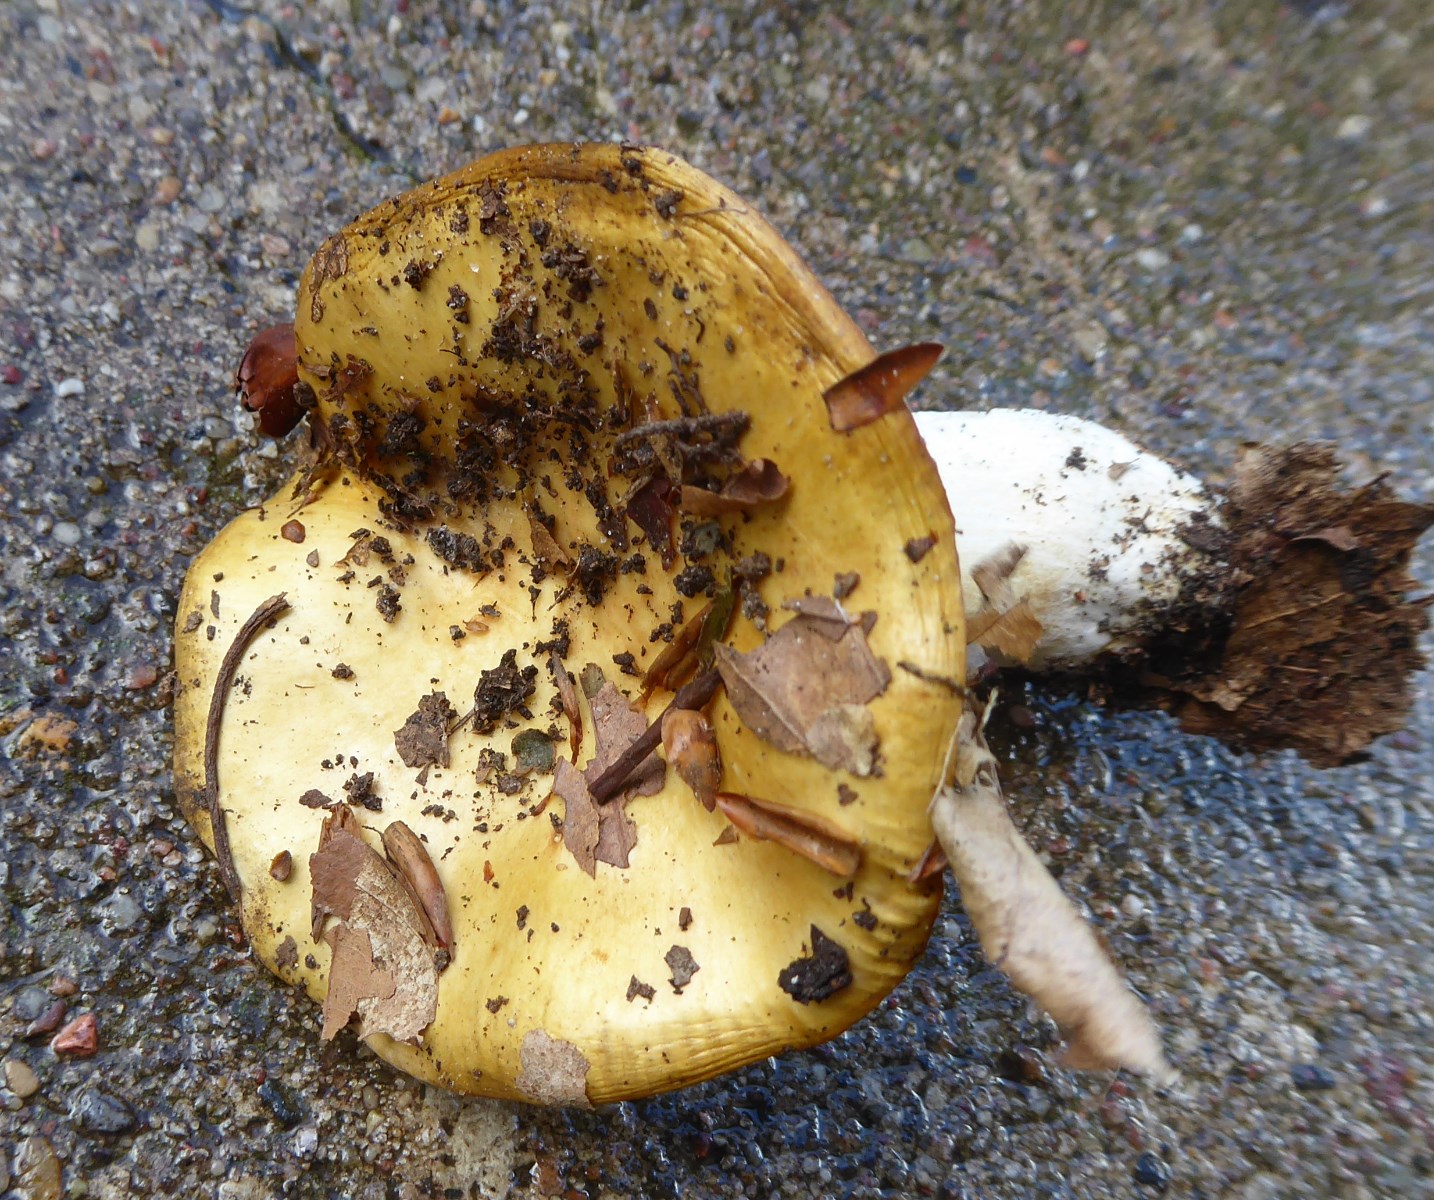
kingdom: Fungi
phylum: Basidiomycota
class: Agaricomycetes
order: Russulales
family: Russulaceae
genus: Russula
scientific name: Russula ochroleuca
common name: okkergul skørhat
